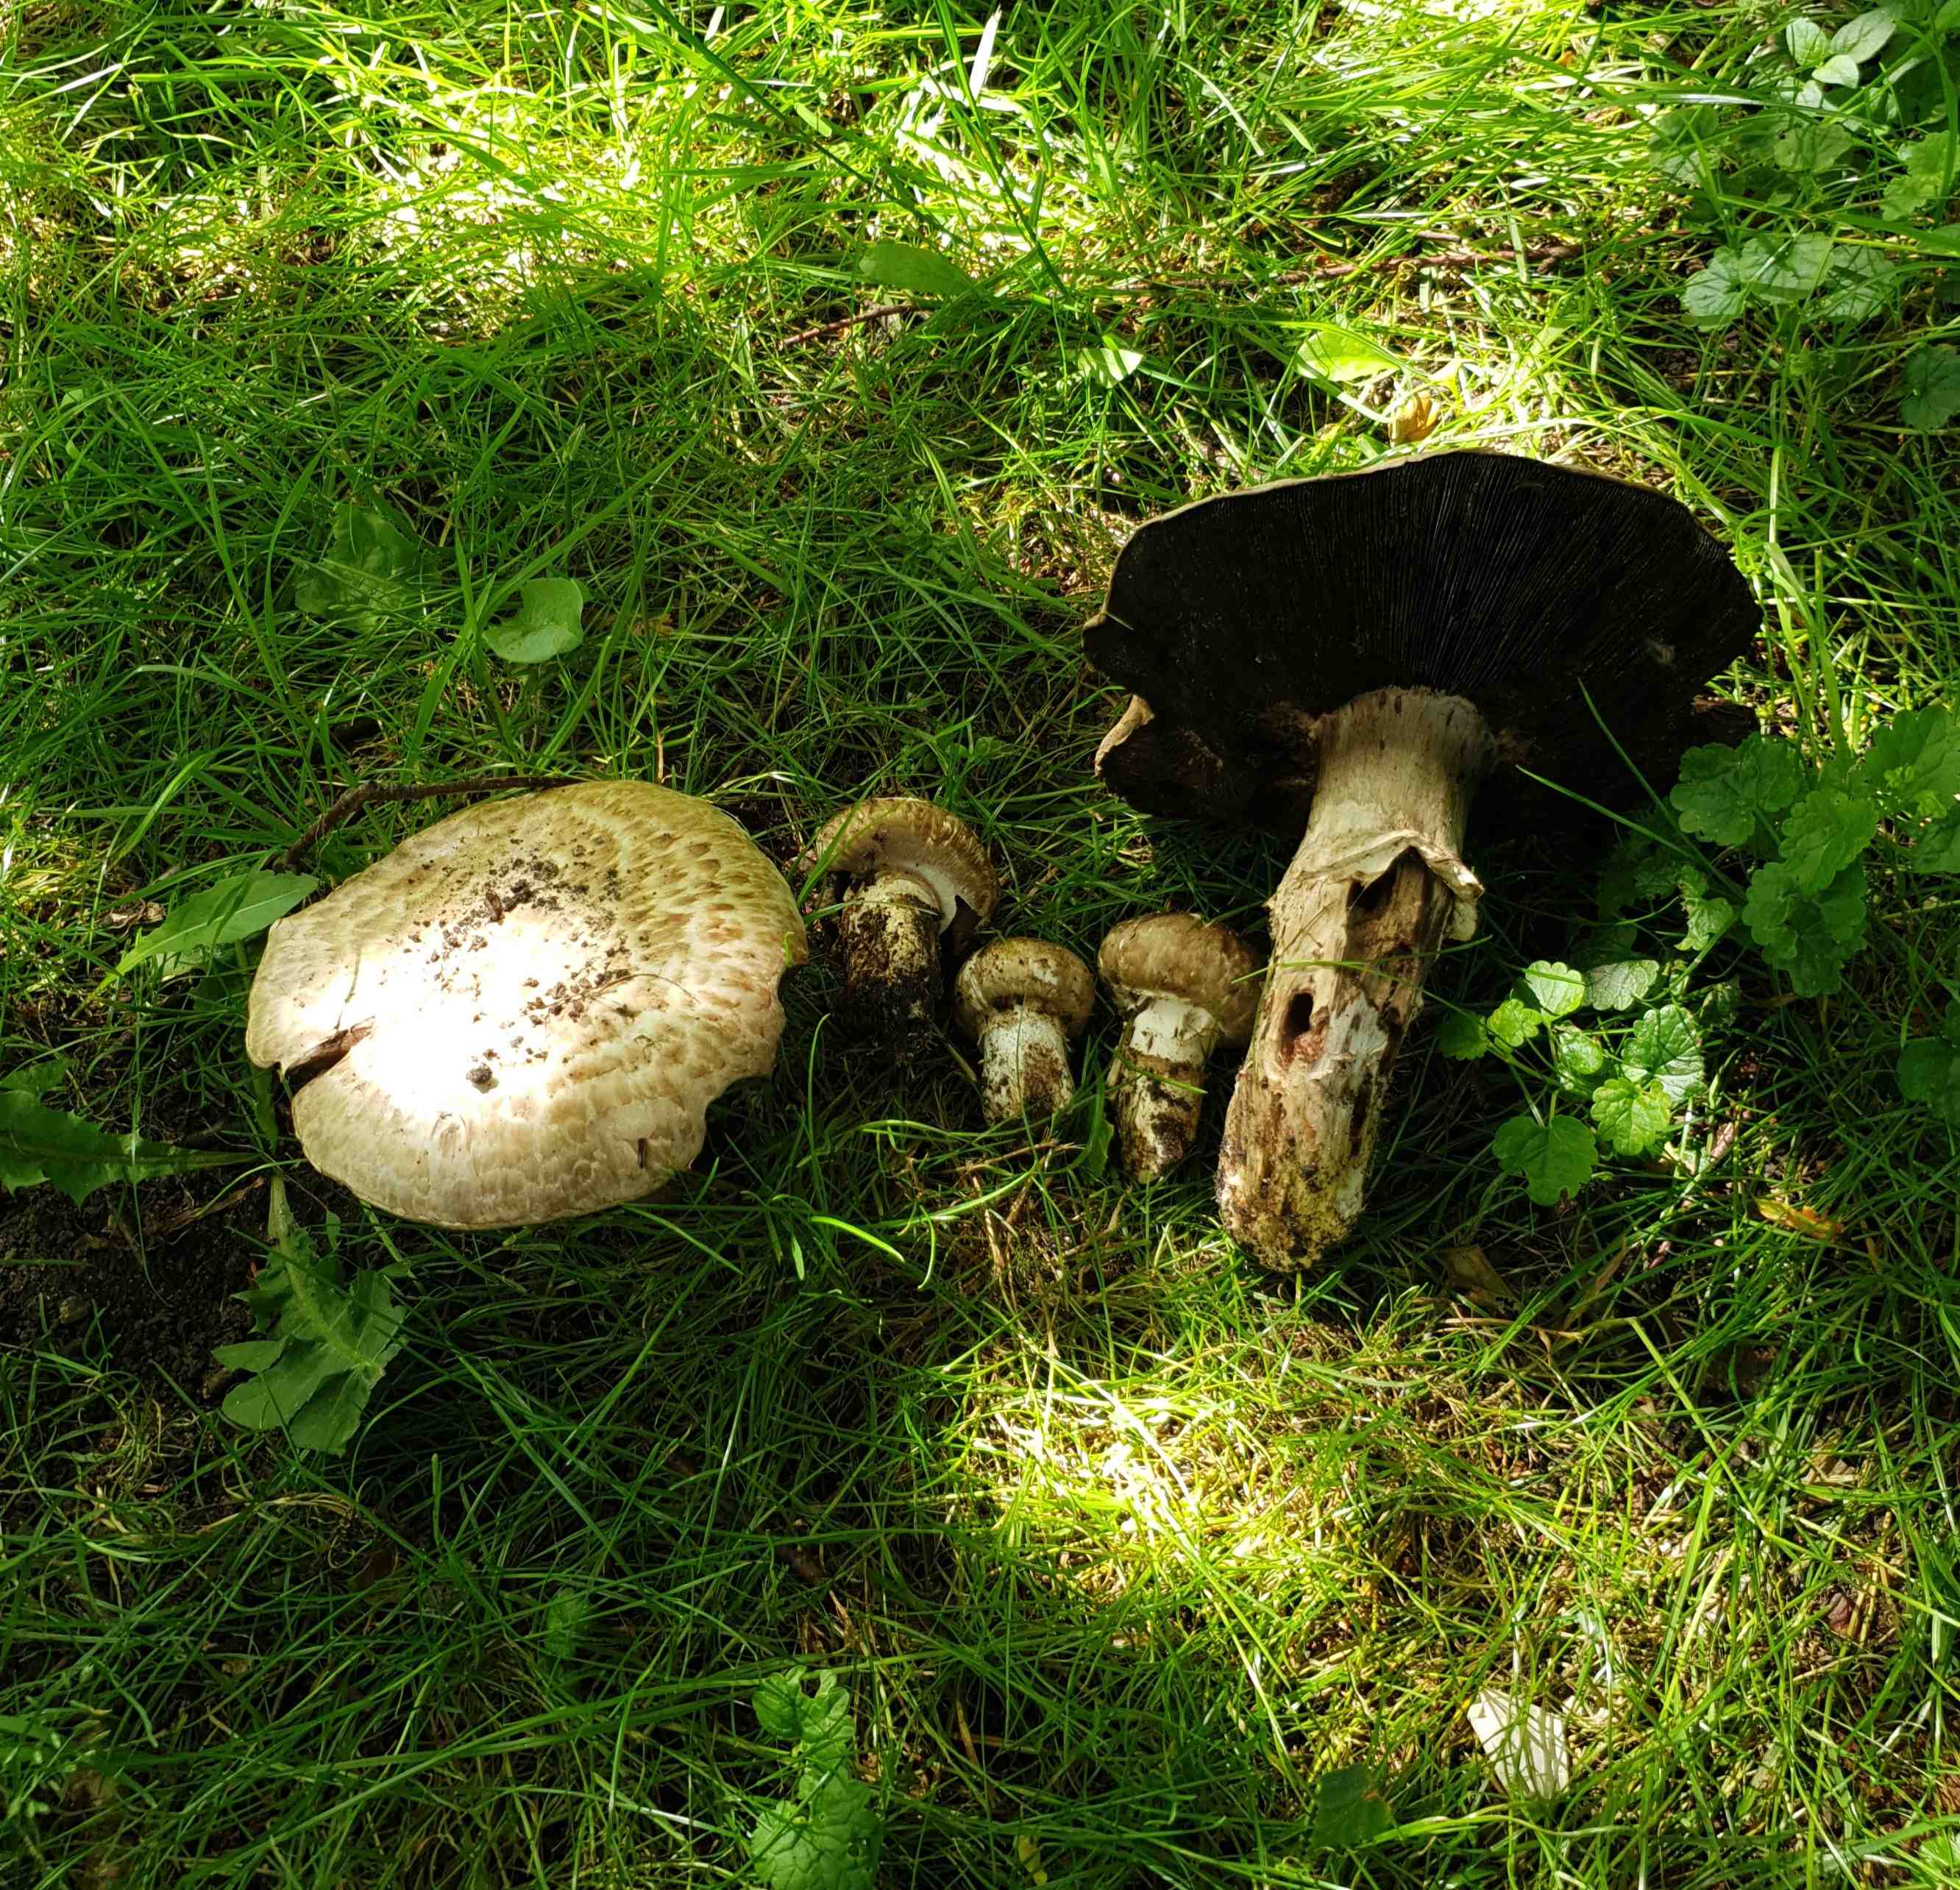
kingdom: Fungi
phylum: Basidiomycota
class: Agaricomycetes
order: Agaricales
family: Agaricaceae
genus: Agaricus
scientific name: Agaricus subperonatus
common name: knippe-champignon
